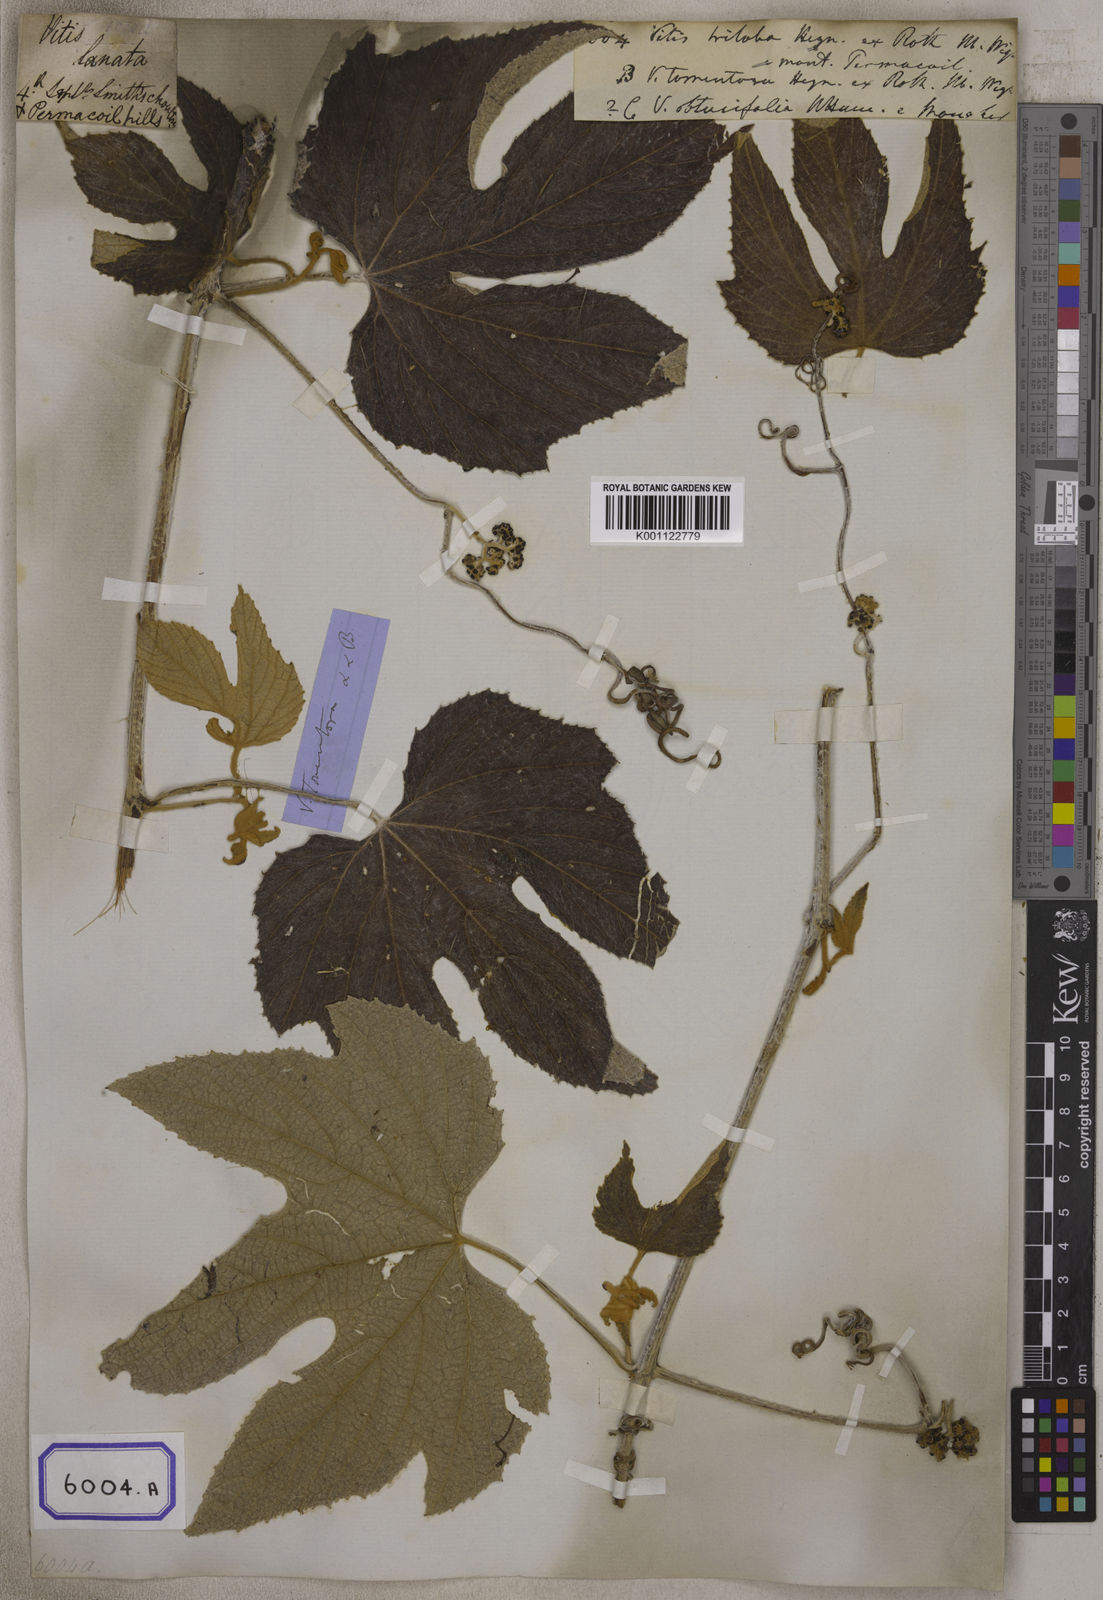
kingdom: Plantae
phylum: Tracheophyta
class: Magnoliopsida
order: Vitales
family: Vitaceae
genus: Ampelocissus
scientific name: Ampelocissus tomentosa
